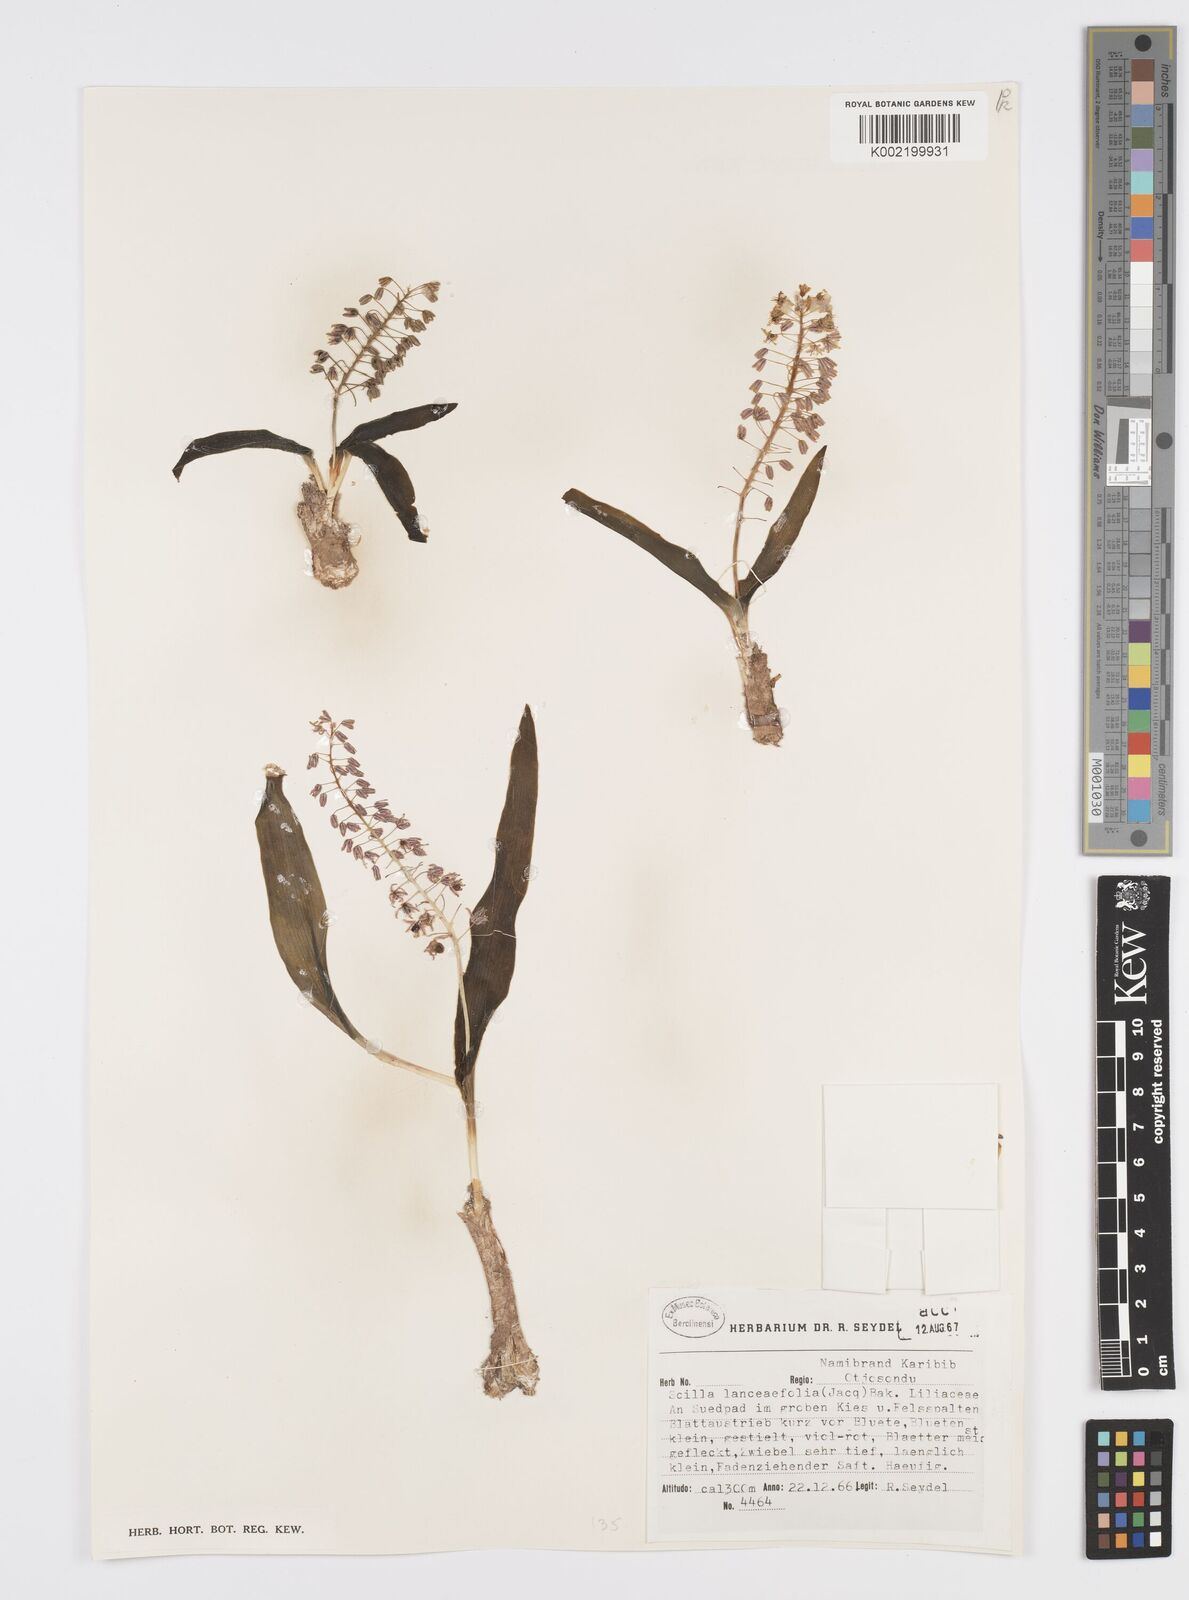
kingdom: Plantae
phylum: Tracheophyta
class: Liliopsida
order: Asparagales
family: Asparagaceae
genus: Ledebouria
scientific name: Ledebouria revoluta
